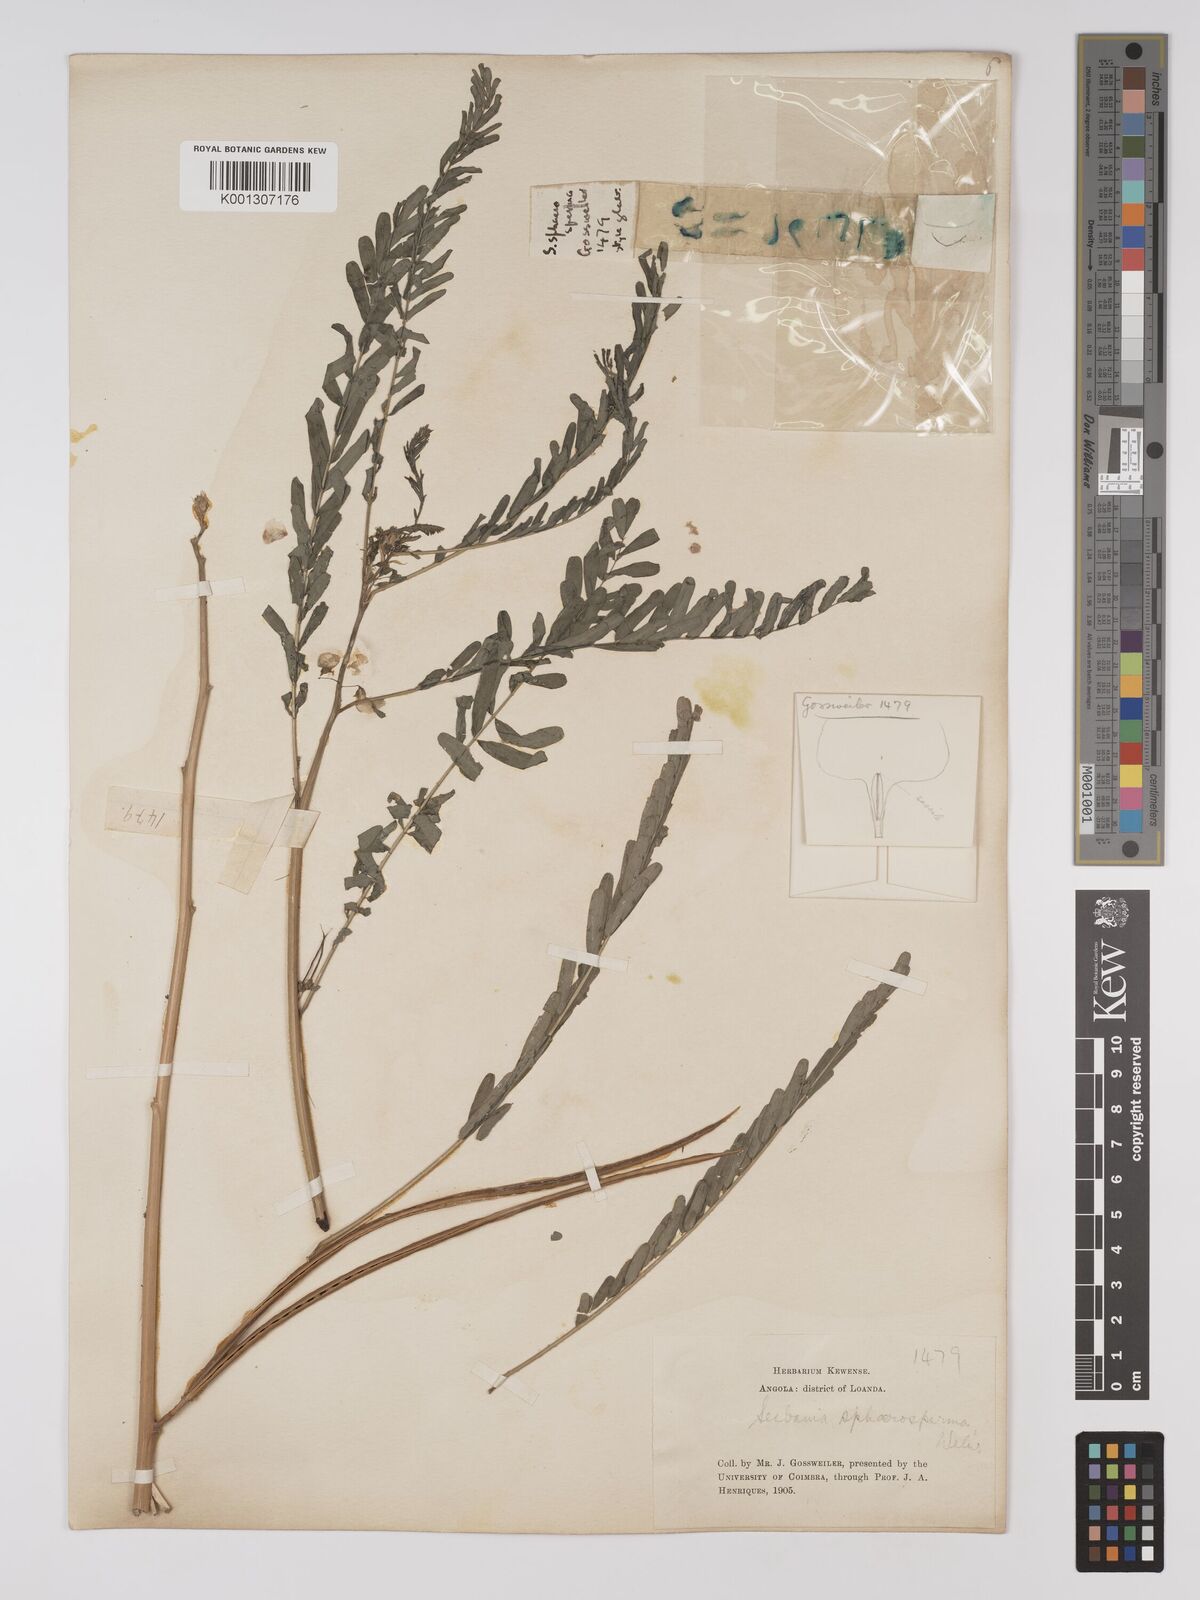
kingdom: Plantae
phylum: Tracheophyta
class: Magnoliopsida
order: Fabales
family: Fabaceae
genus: Sesbania
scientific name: Sesbania
